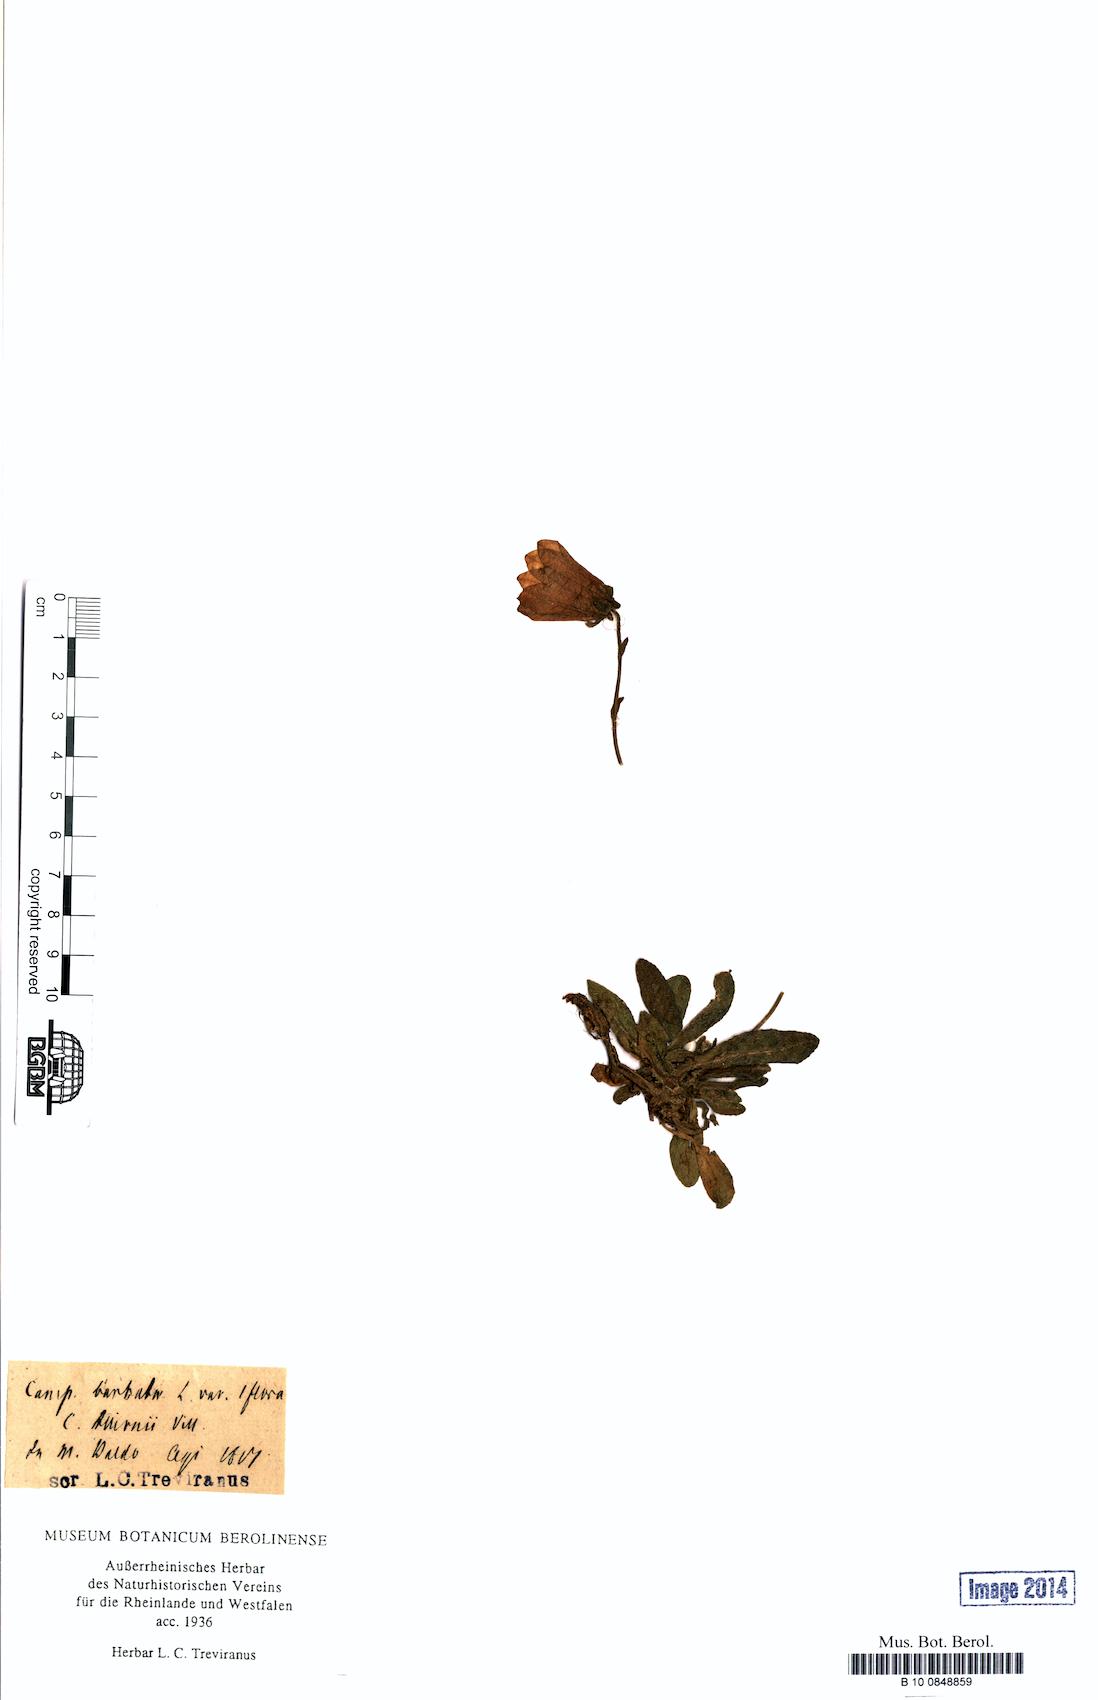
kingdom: Plantae
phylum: Tracheophyta
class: Magnoliopsida
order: Asterales
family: Campanulaceae
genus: Campanula
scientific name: Campanula barbata
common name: Bearded bellflower
